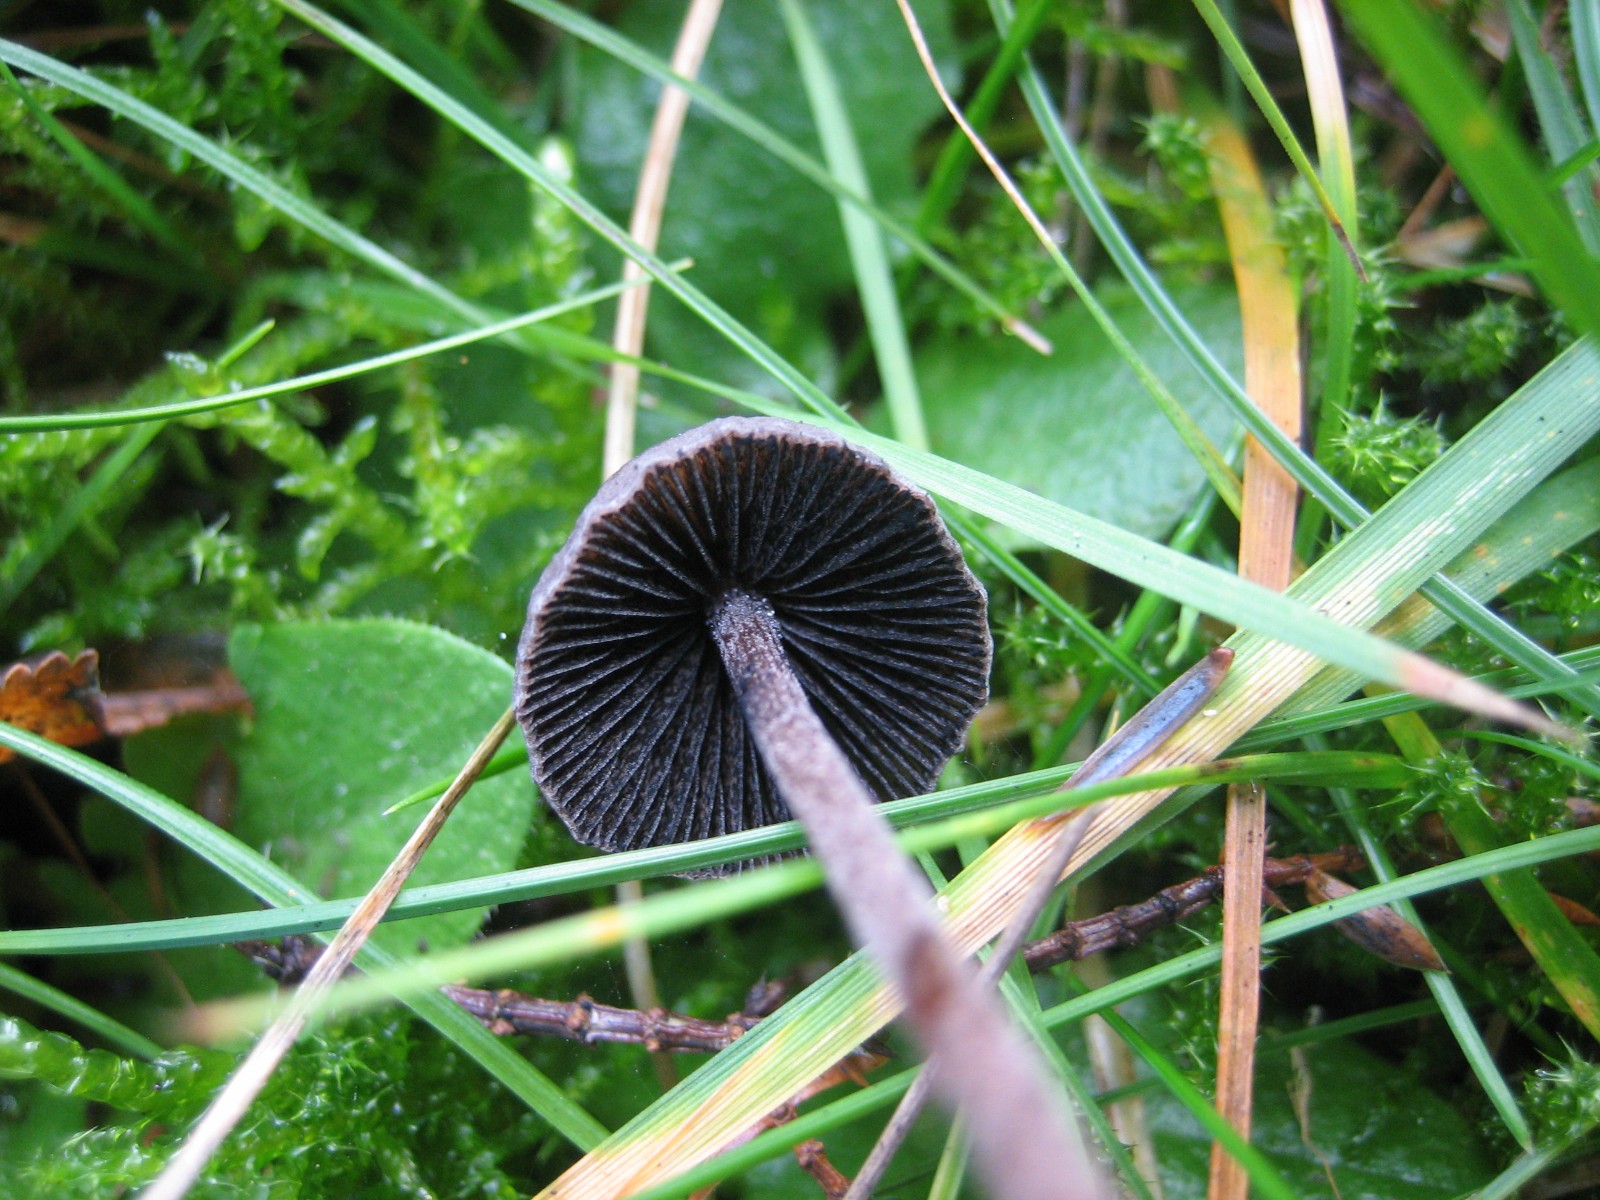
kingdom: Fungi
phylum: Basidiomycota
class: Agaricomycetes
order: Agaricales
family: Bolbitiaceae
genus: Panaeolus
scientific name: Panaeolus acuminatus
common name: høj glanshat
